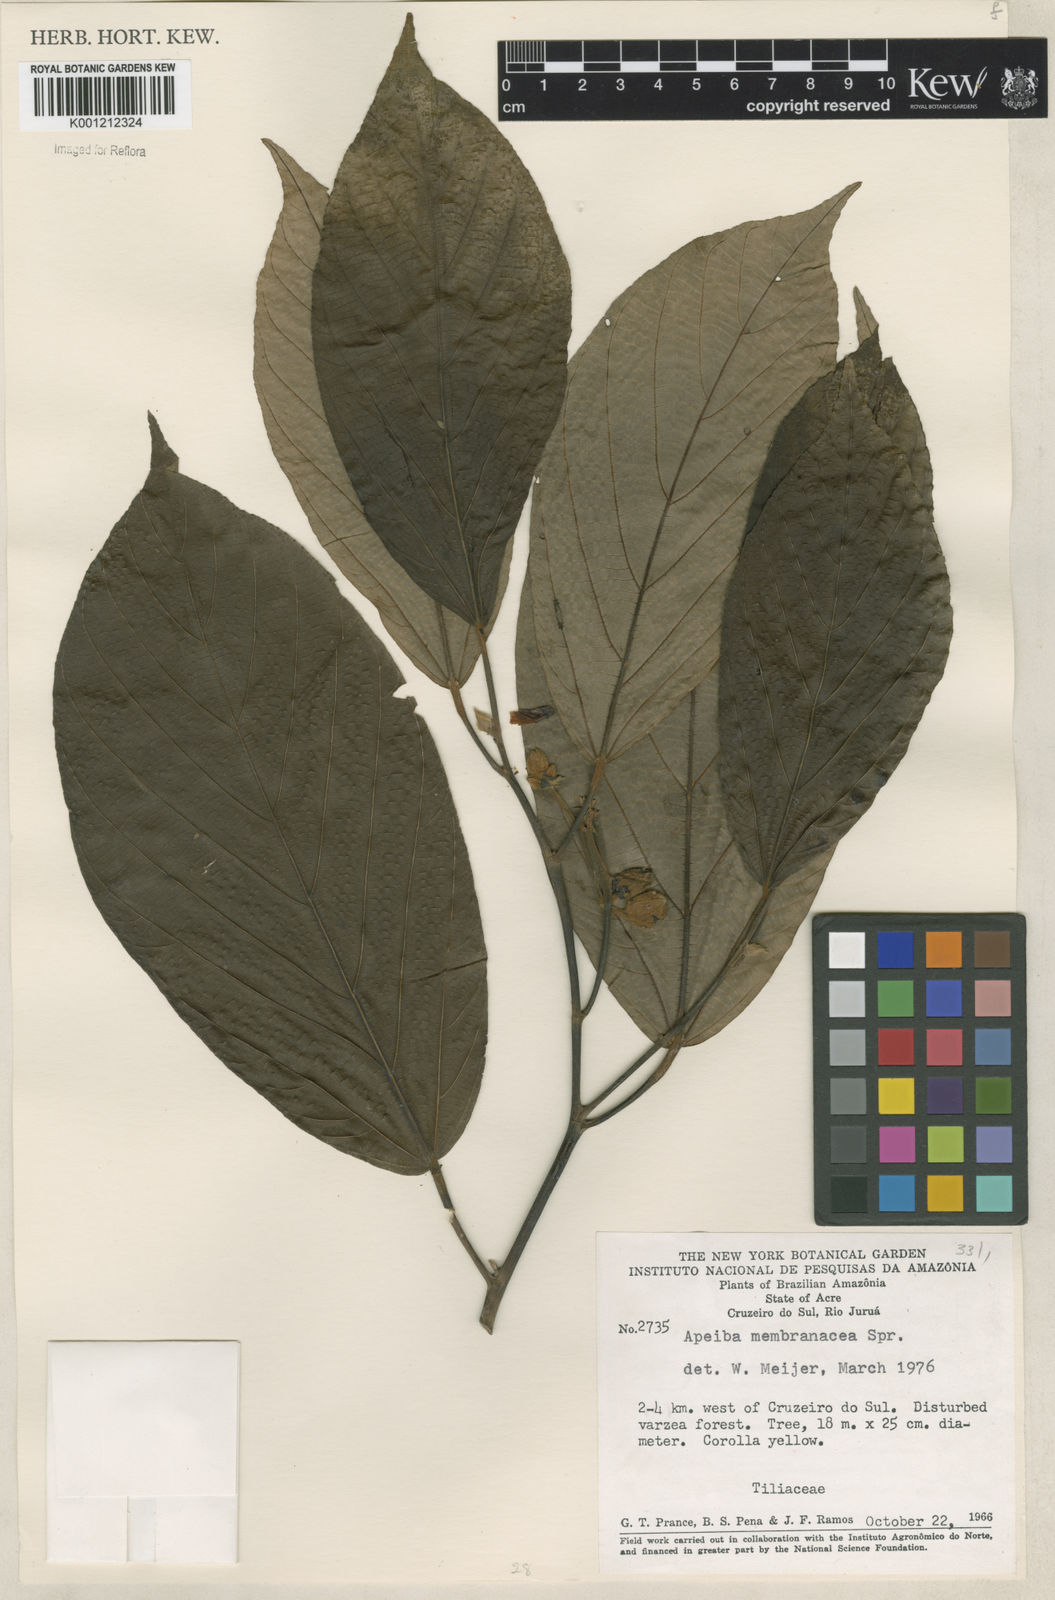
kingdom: Plantae
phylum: Tracheophyta
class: Magnoliopsida
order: Malvales
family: Malvaceae
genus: Apeiba
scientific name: Apeiba membranacea
